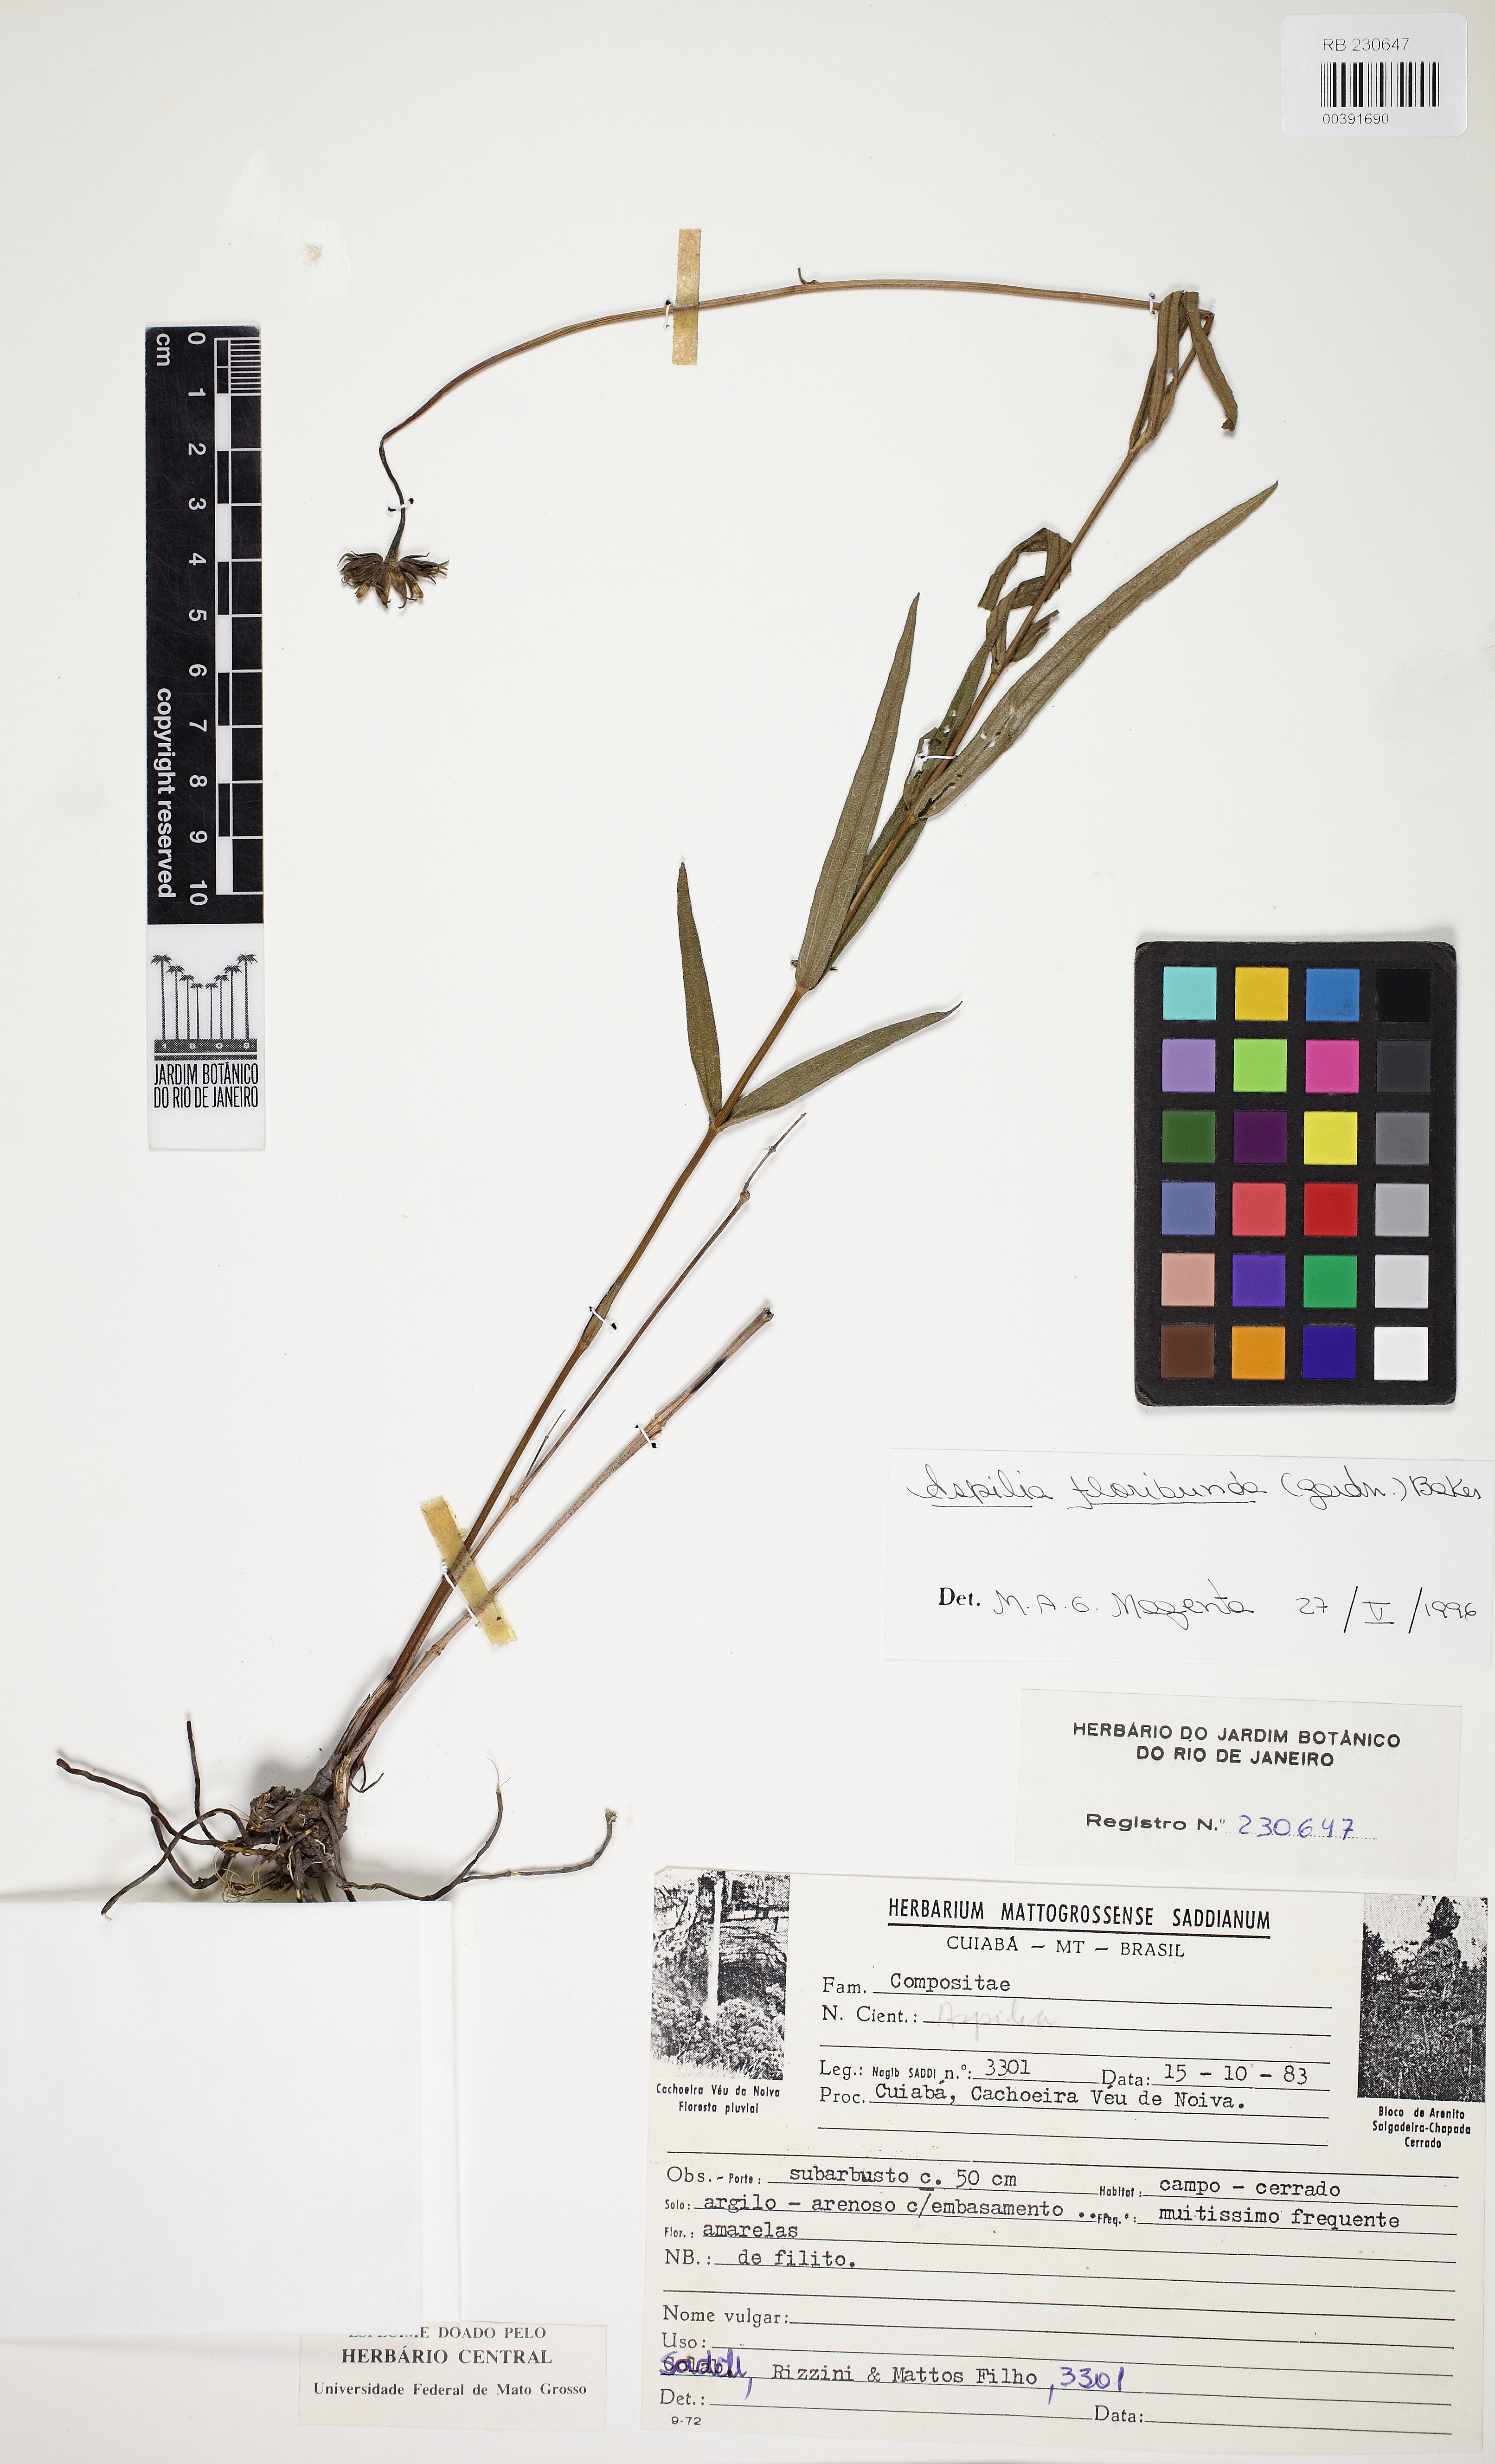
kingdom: Plantae
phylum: Tracheophyta
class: Magnoliopsida
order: Asterales
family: Asteraceae
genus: Wedelia
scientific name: Wedelia floribunda
